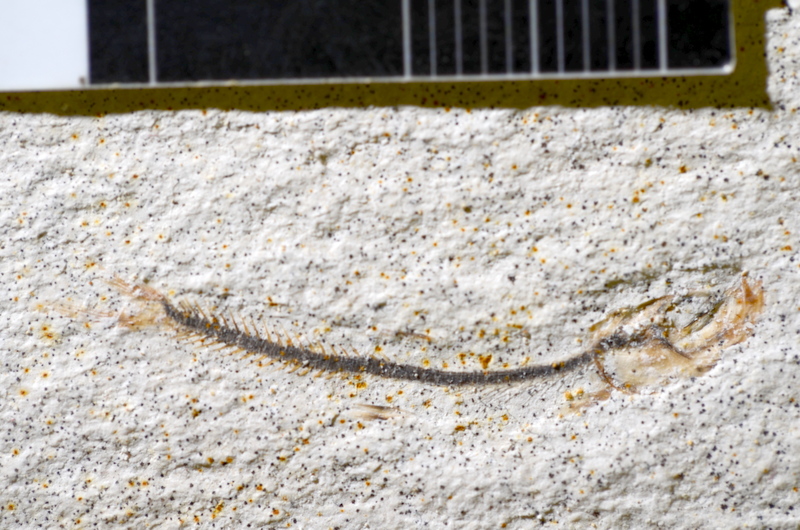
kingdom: Animalia
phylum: Chordata
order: Salmoniformes
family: Orthogonikleithridae
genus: Orthogonikleithrus
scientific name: Orthogonikleithrus hoelli
